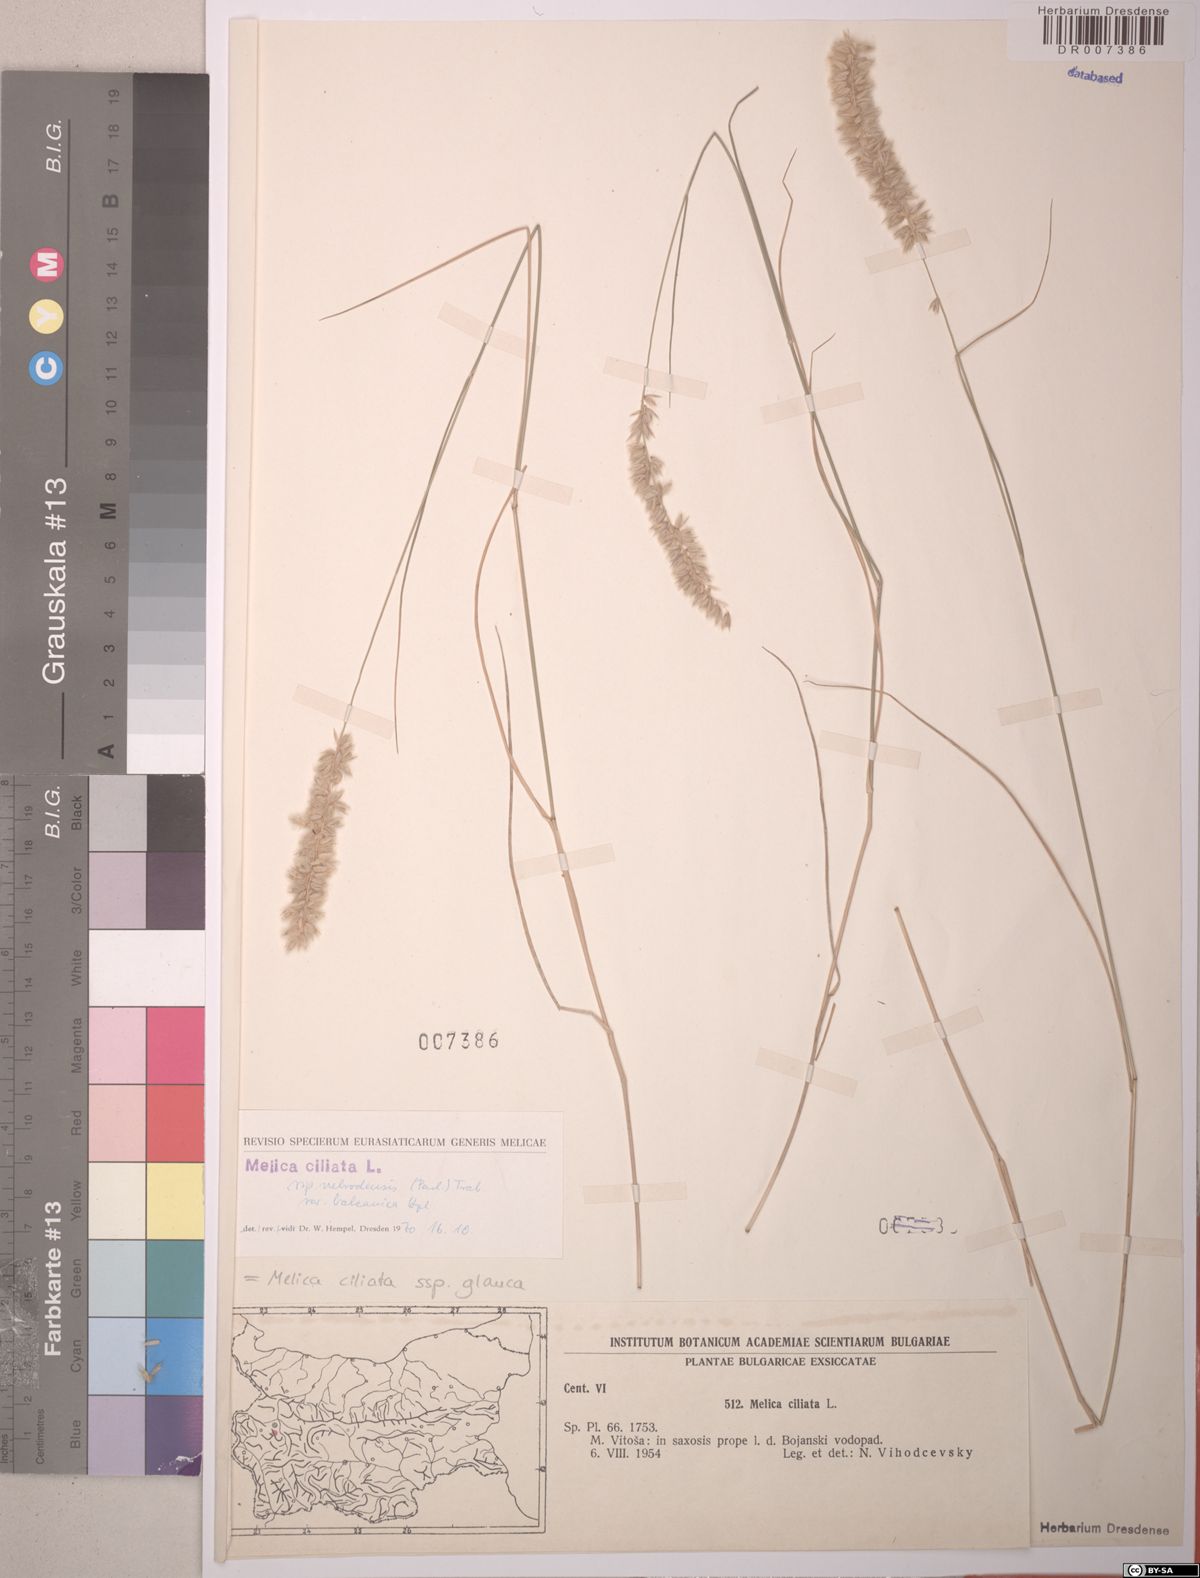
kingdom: Plantae
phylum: Tracheophyta
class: Liliopsida
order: Poales
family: Poaceae
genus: Melica
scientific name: Melica ciliata
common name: Hairy melicgrass
